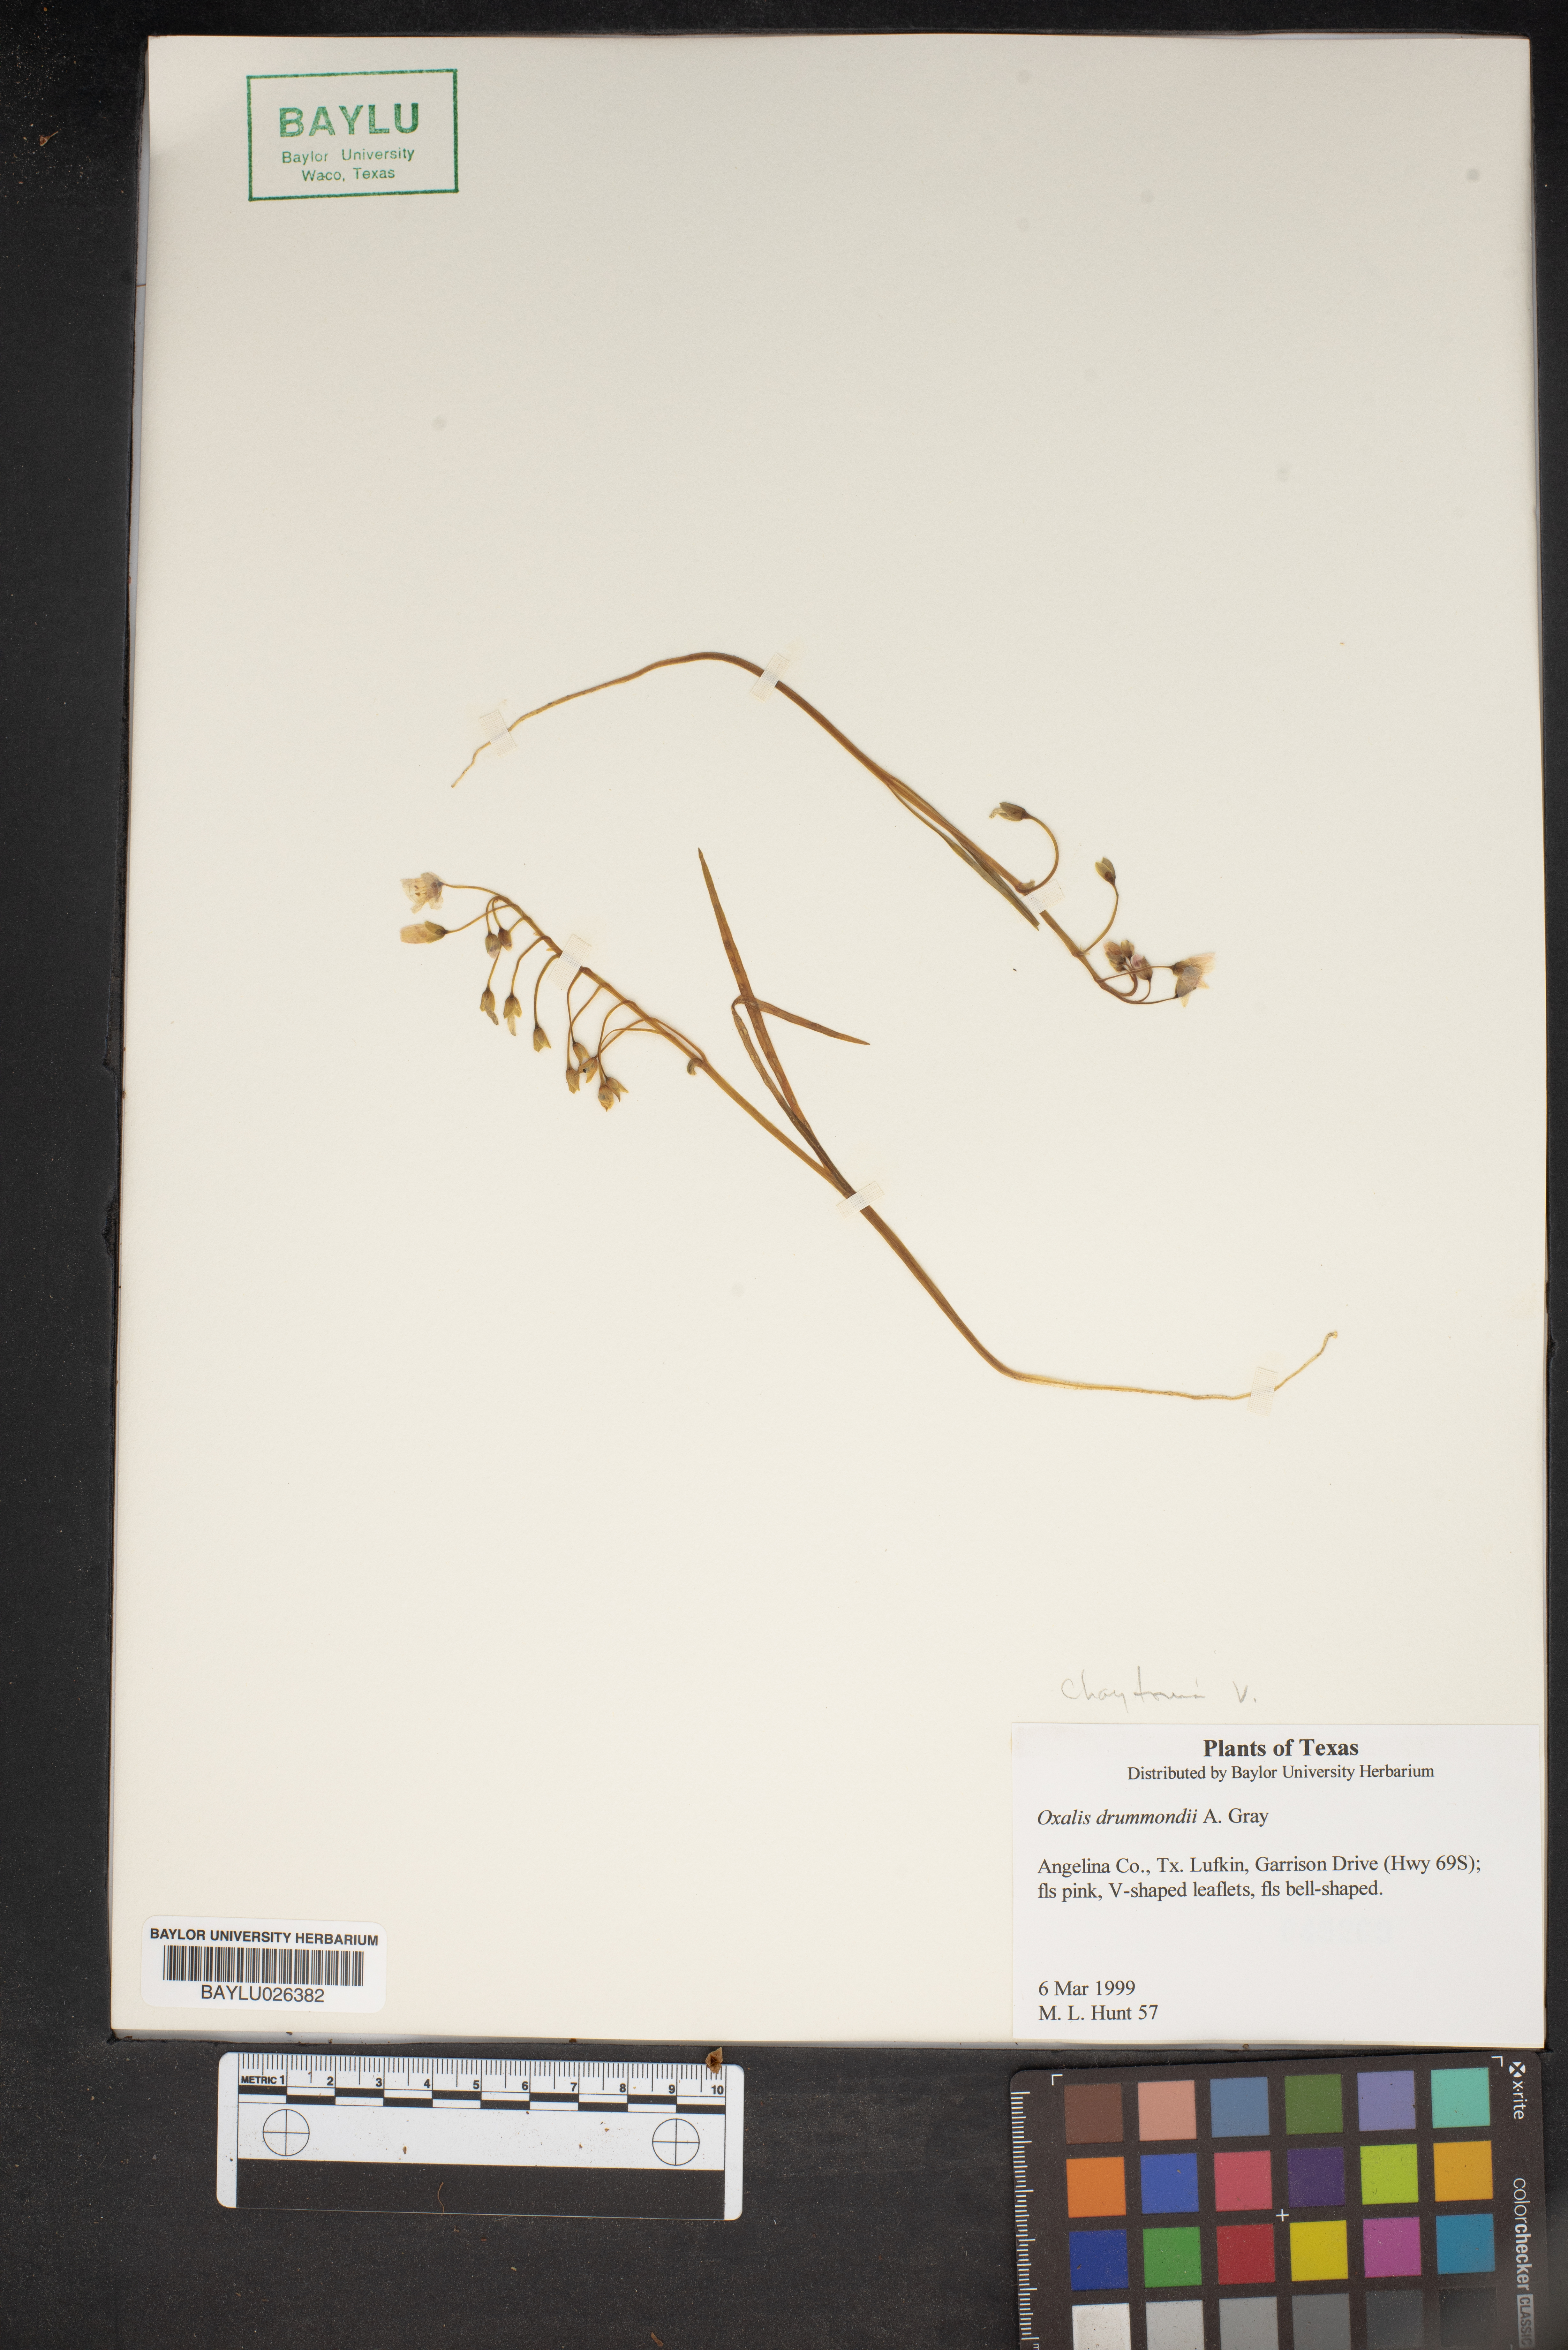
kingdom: Plantae
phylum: Tracheophyta
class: Magnoliopsida
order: Oxalidales
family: Oxalidaceae
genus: Oxalis
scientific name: Oxalis drummondii
